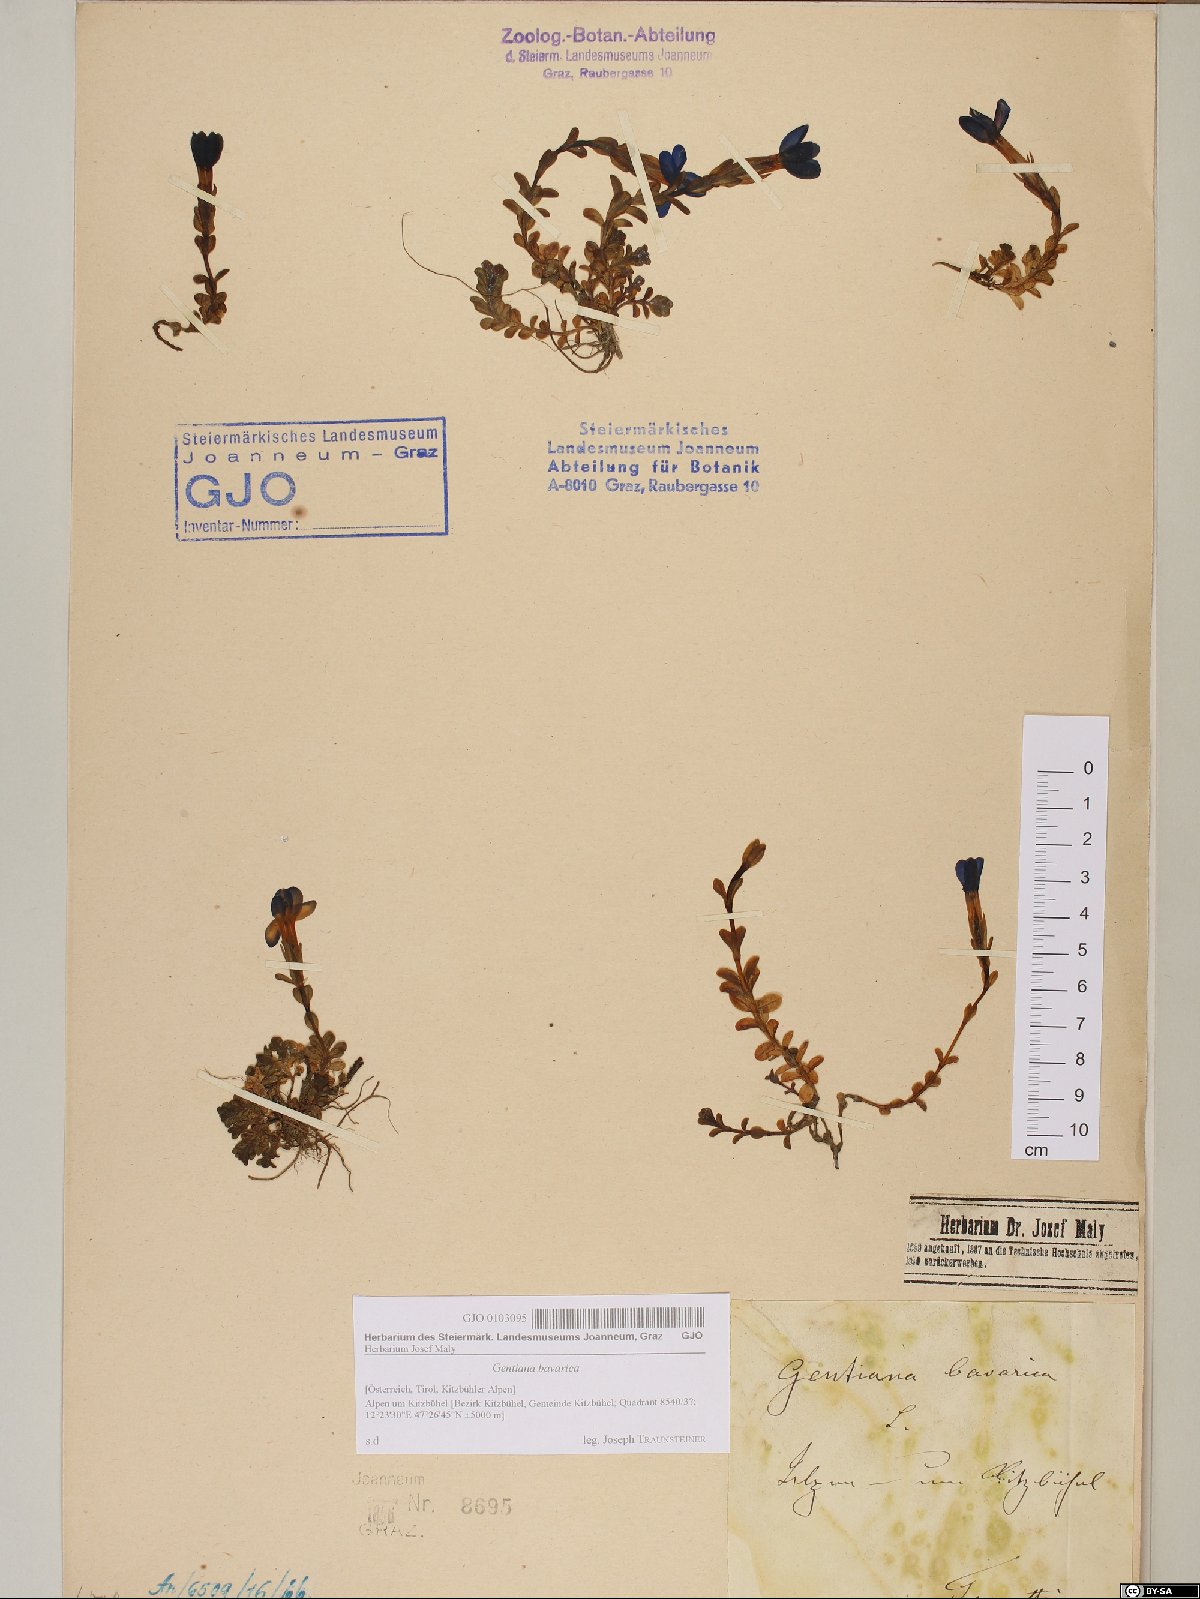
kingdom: Plantae
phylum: Tracheophyta
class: Magnoliopsida
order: Gentianales
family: Gentianaceae
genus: Gentiana
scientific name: Gentiana bavarica
